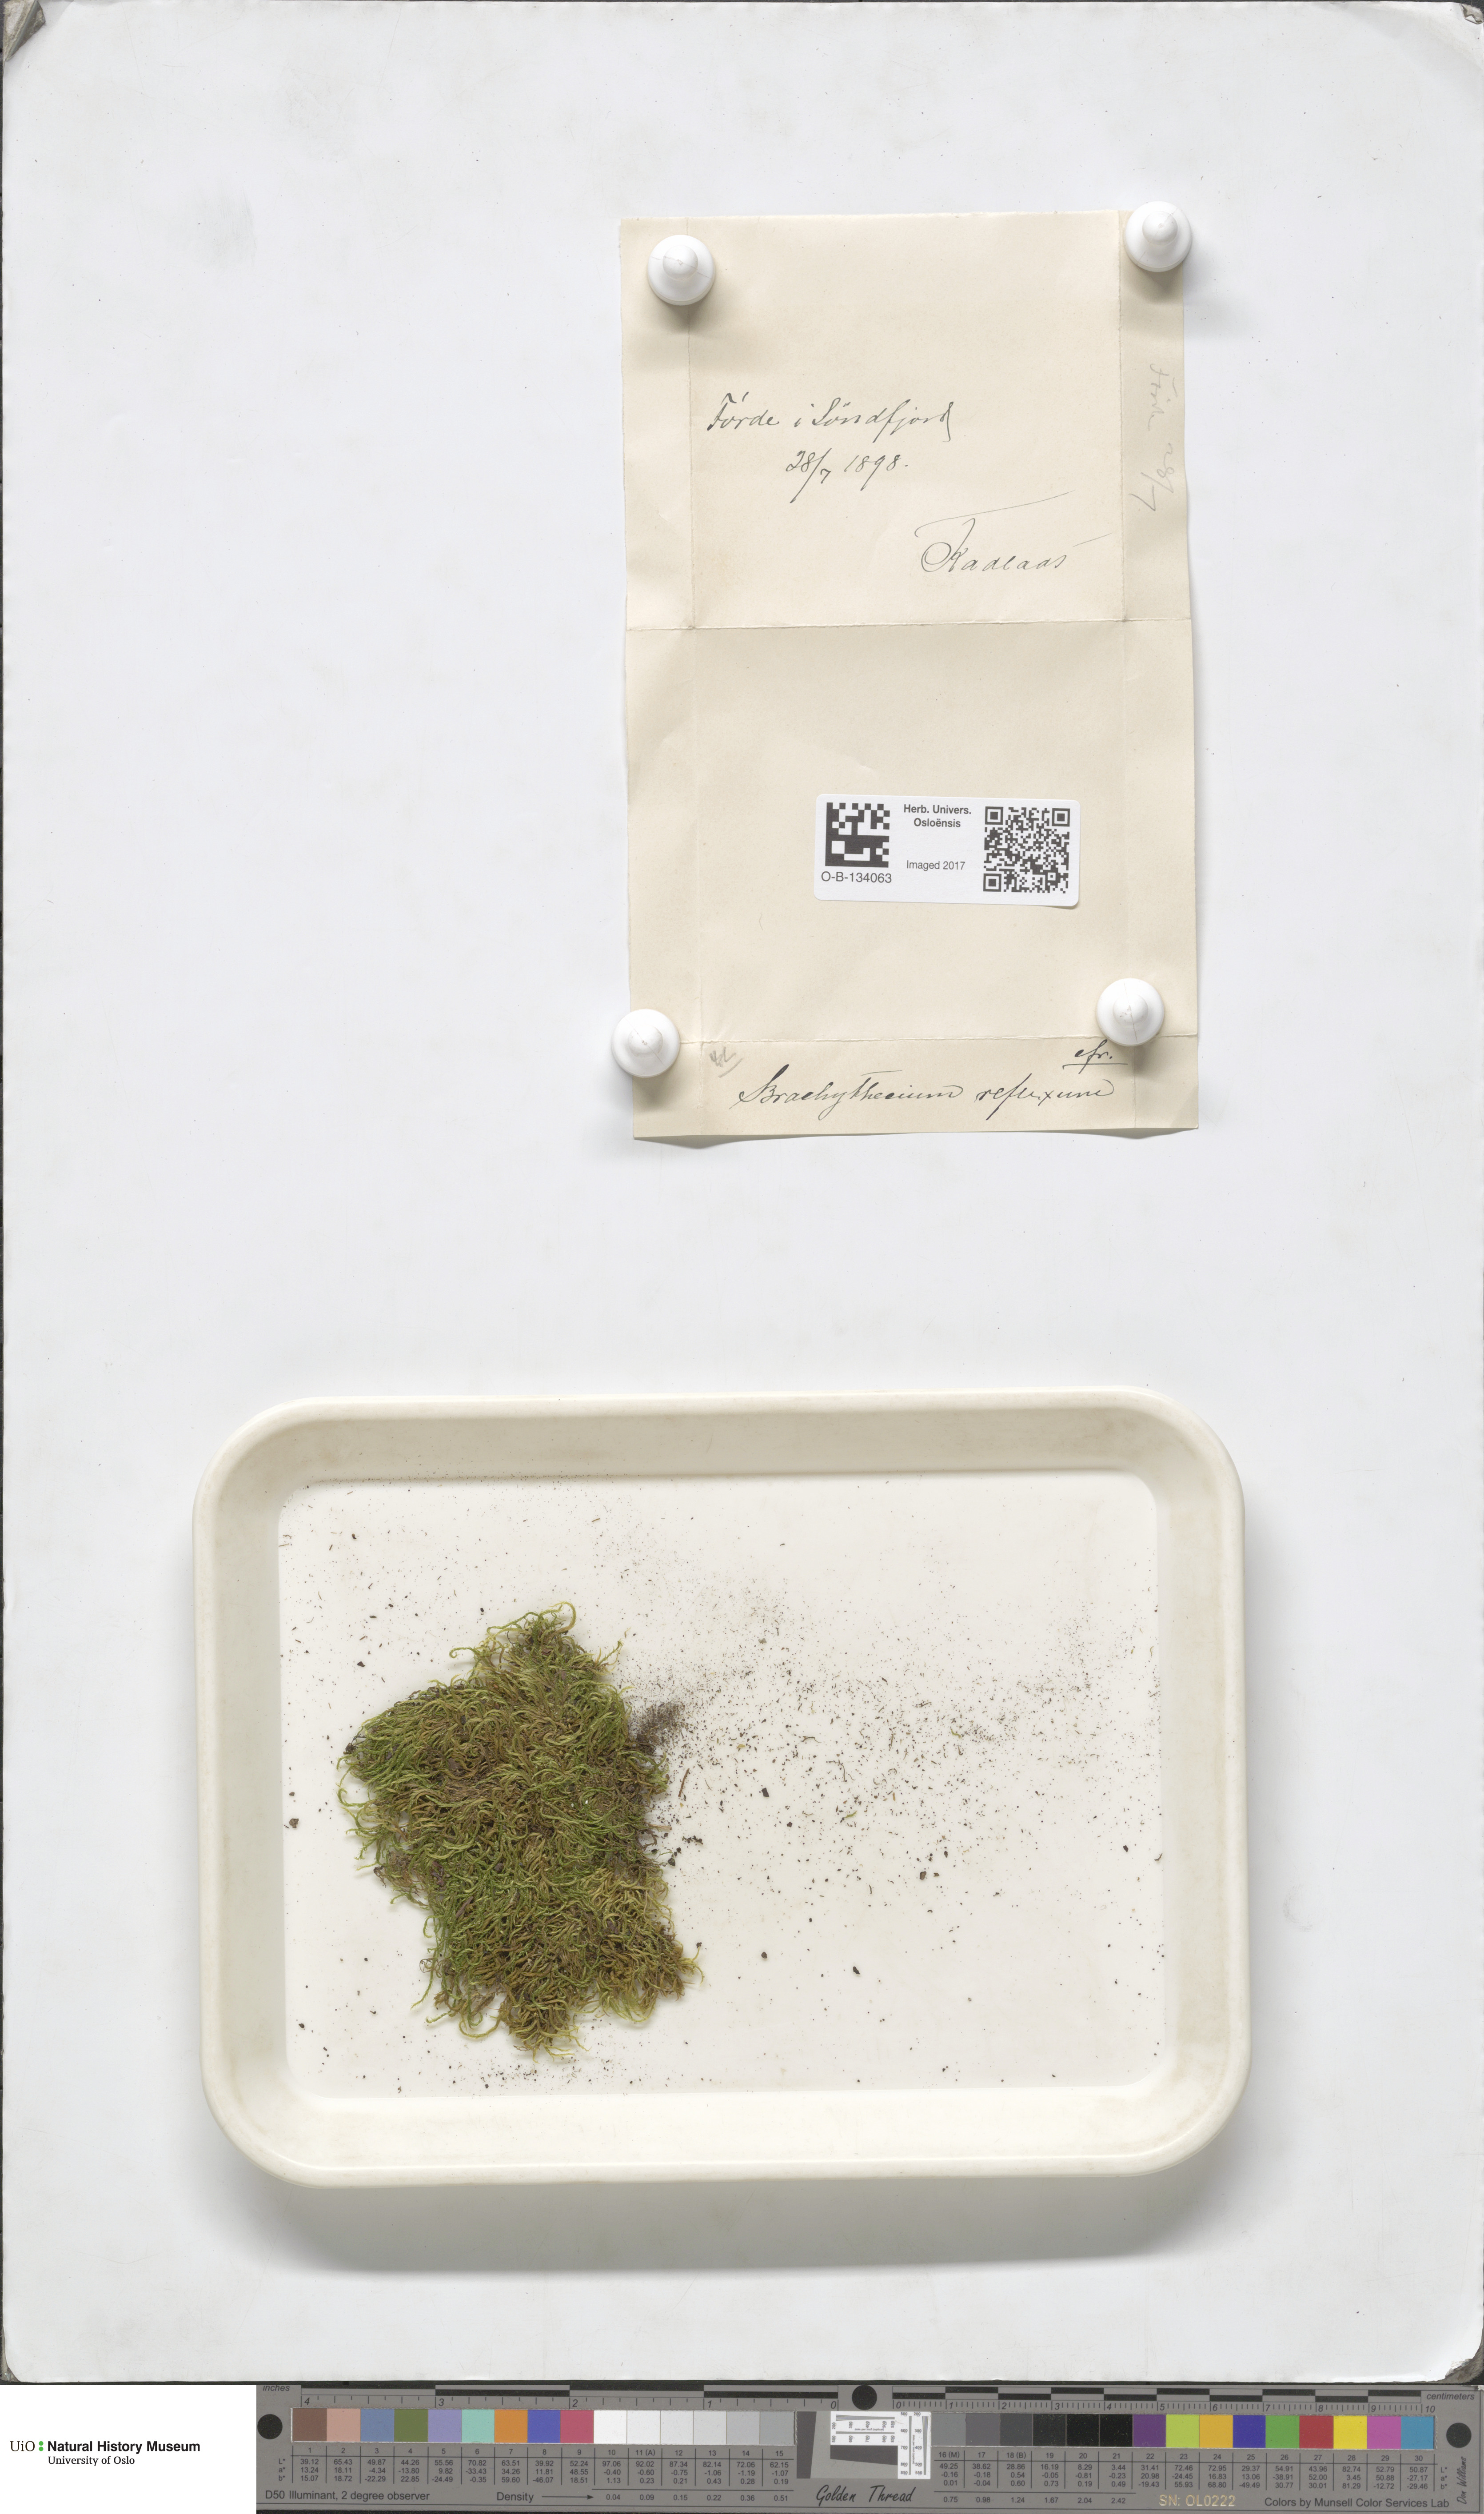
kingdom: Plantae
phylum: Bryophyta
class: Bryopsida
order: Hypnales
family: Brachytheciaceae
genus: Sciuro-hypnum
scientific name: Sciuro-hypnum reflexum
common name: Reflexed feather-moss
